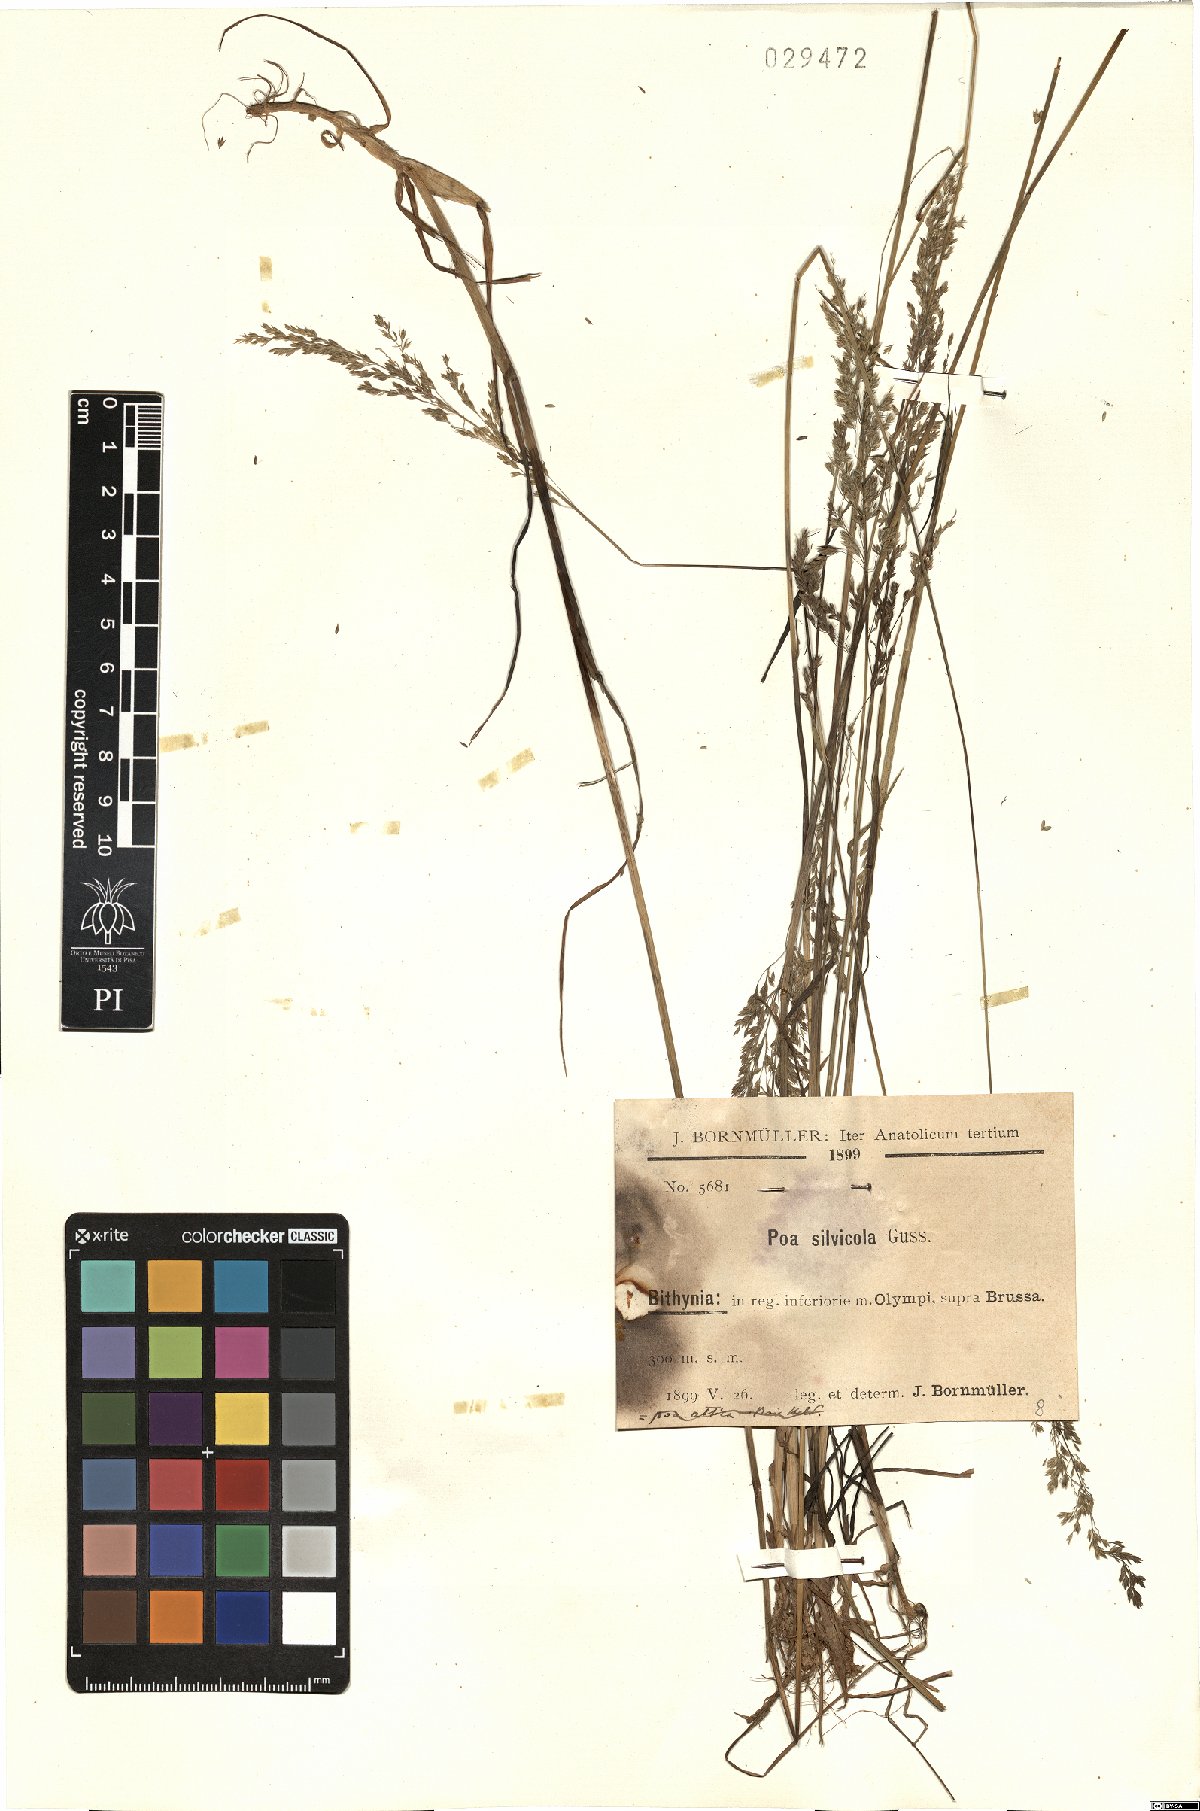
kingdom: Plantae
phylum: Tracheophyta
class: Liliopsida
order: Poales
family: Poaceae
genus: Poa
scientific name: Poa trivialis
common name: Rough bluegrass
